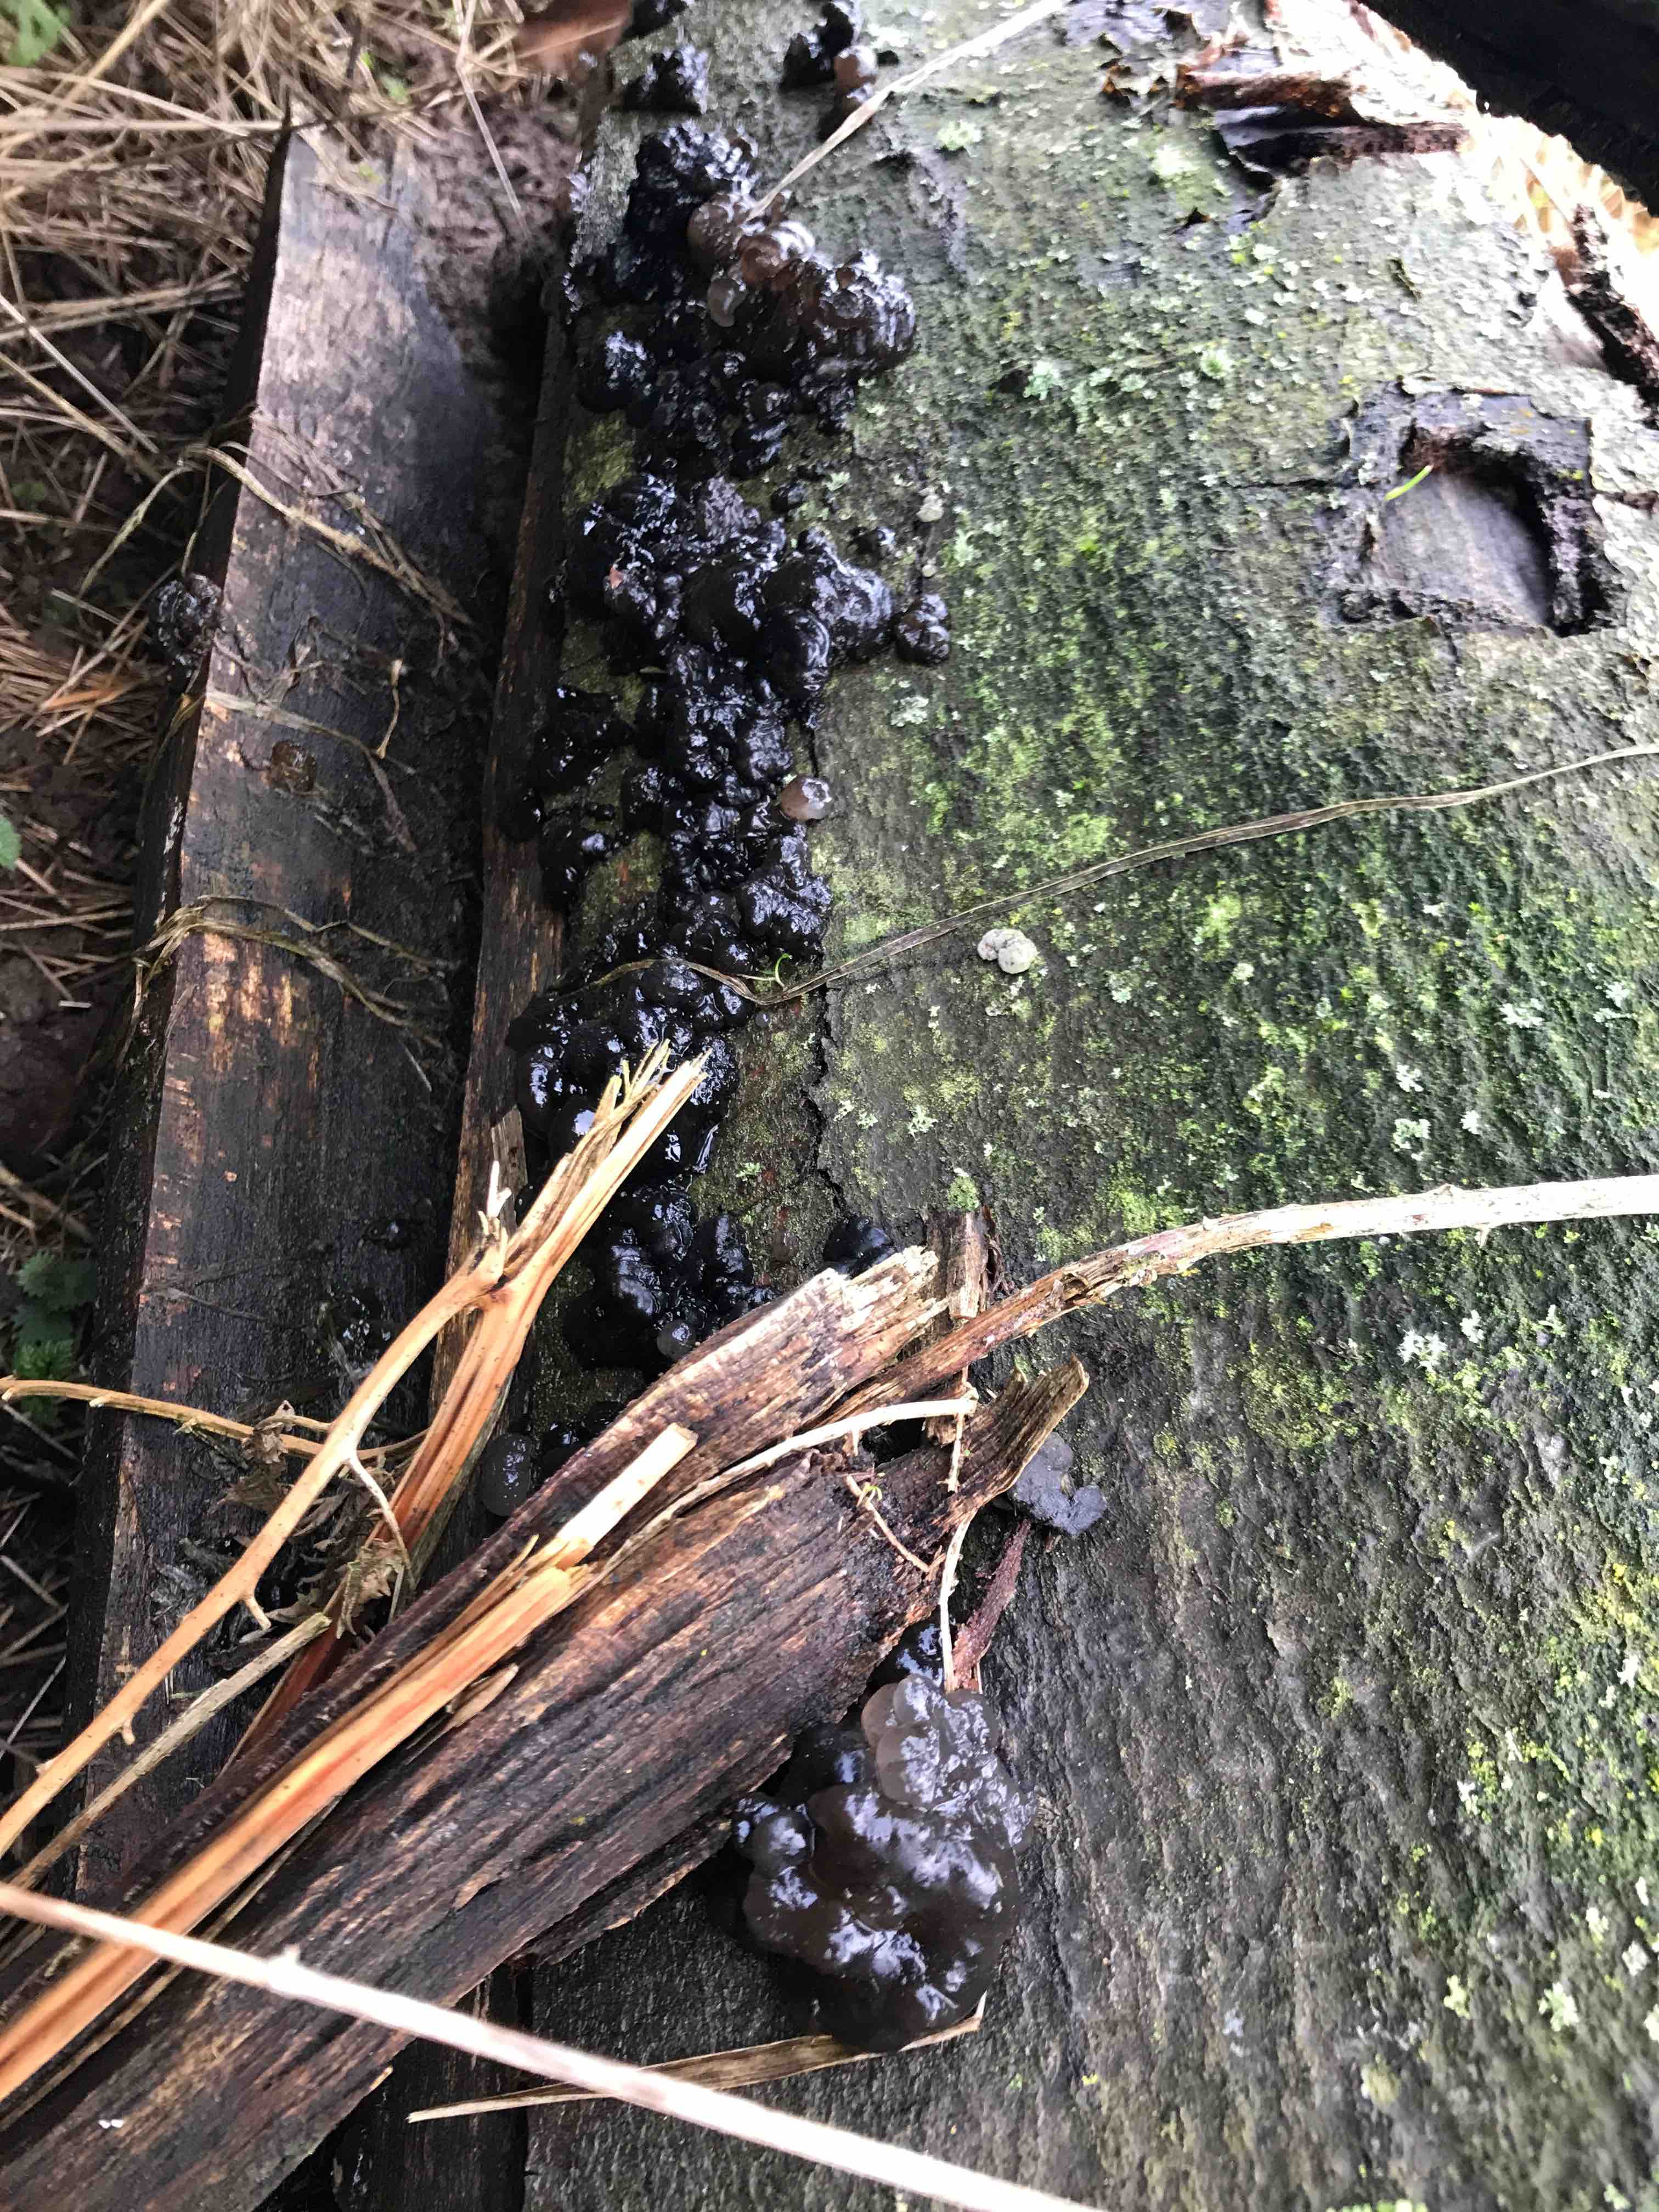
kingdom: Fungi
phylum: Basidiomycota
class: Agaricomycetes
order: Auriculariales
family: Auriculariaceae
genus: Exidia
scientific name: Exidia nigricans
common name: almindelig bævretop
